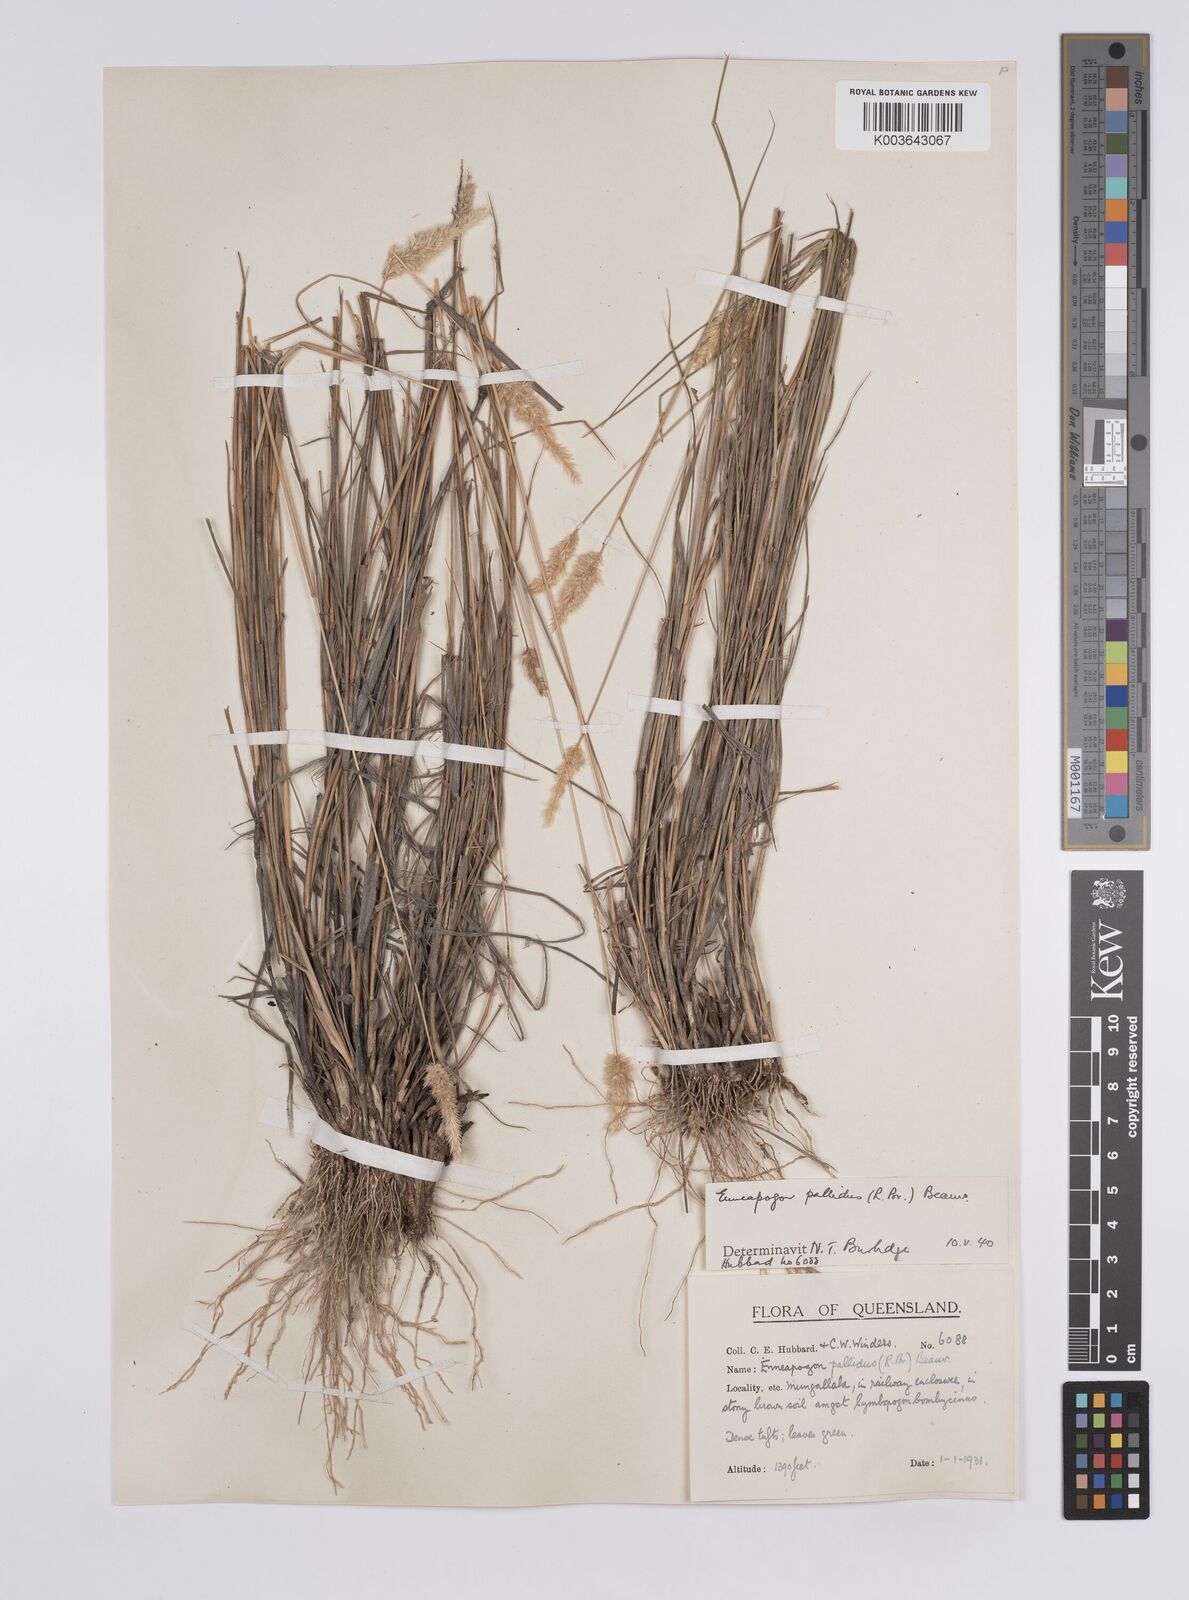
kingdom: Plantae
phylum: Tracheophyta
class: Liliopsida
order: Poales
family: Poaceae
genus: Enneapogon
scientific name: Enneapogon pallidus
